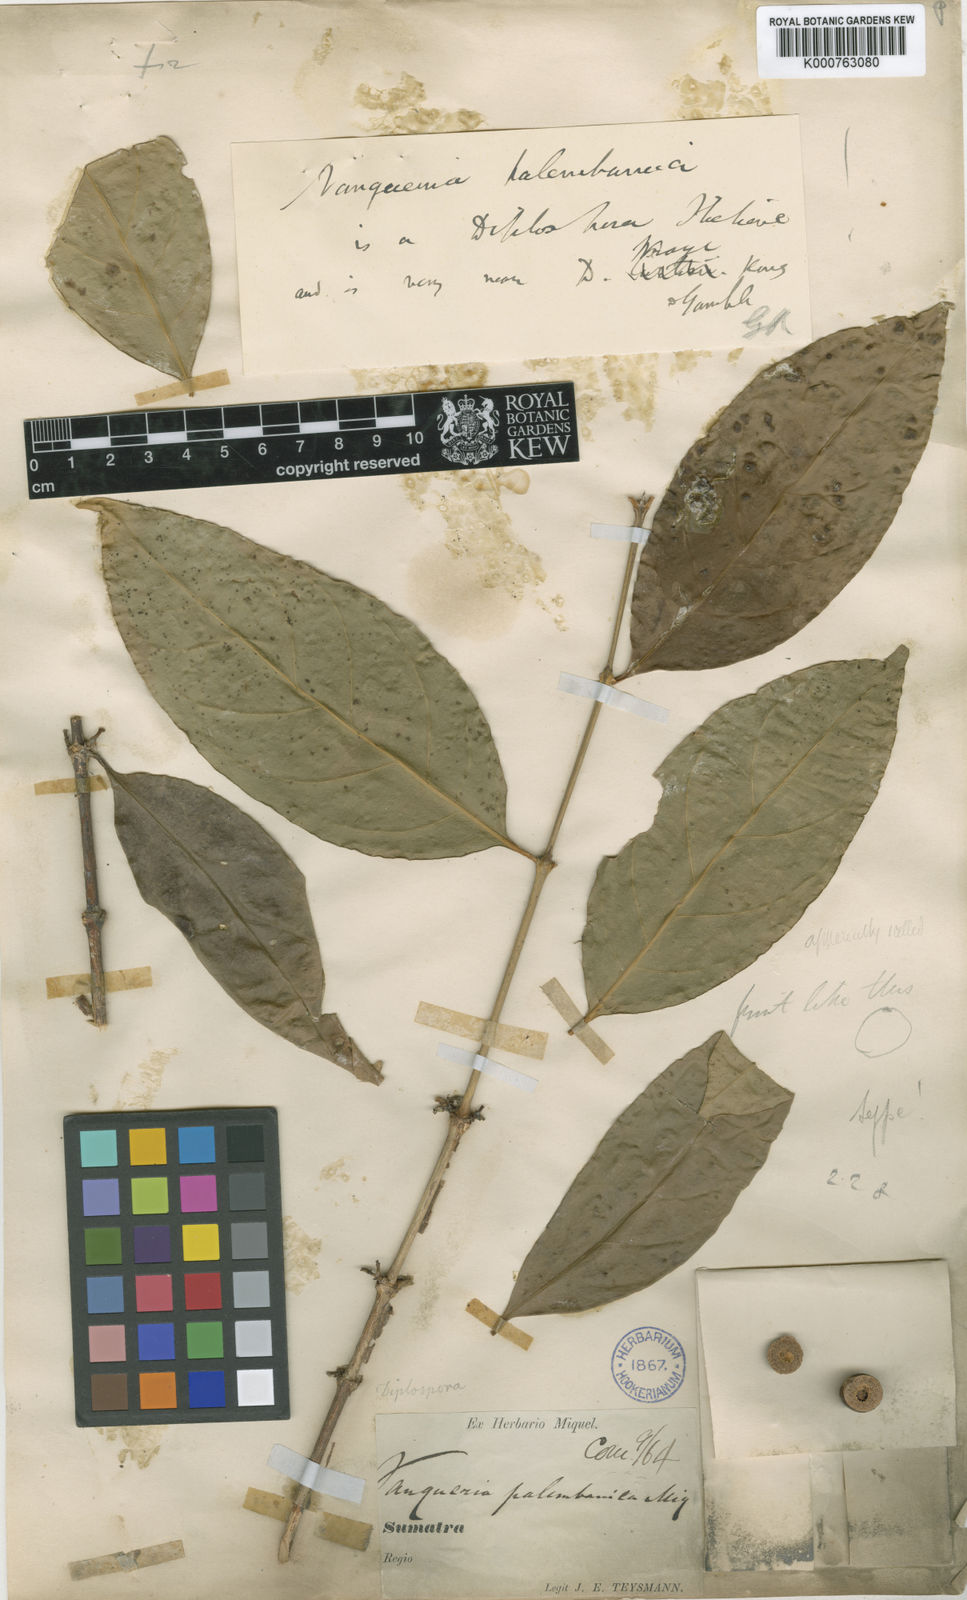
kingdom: Plantae
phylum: Tracheophyta
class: Magnoliopsida
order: Gentianales
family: Rubiaceae
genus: Discospermum
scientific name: Discospermum abnorme
